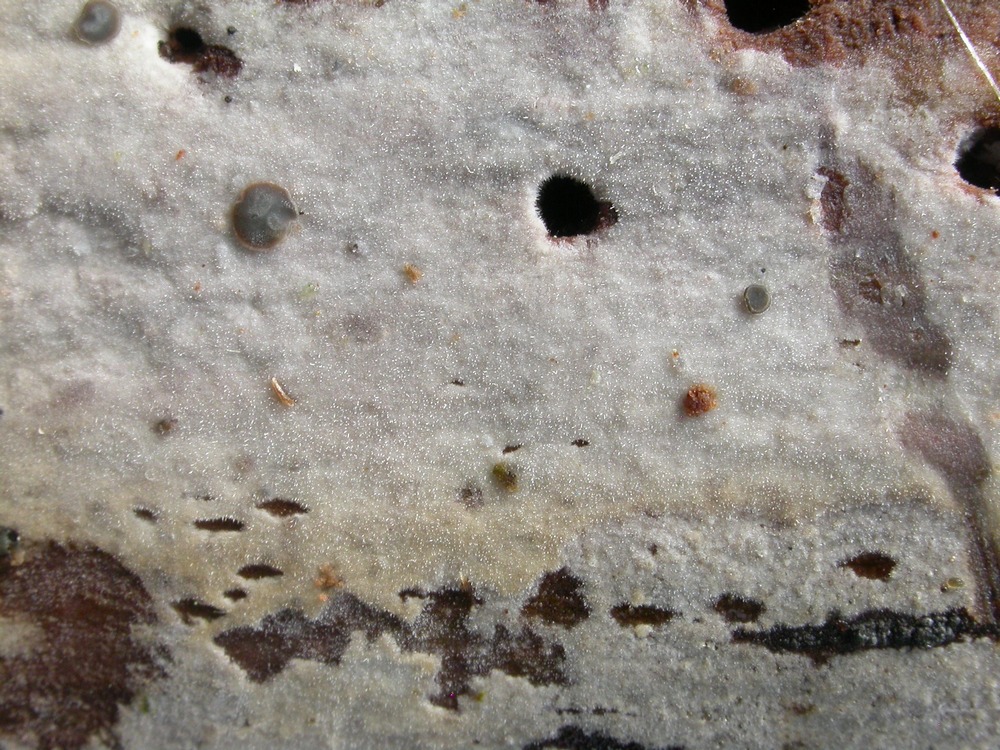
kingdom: Fungi
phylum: Basidiomycota
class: Agaricomycetes
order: Hymenochaetales
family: Rickenellaceae
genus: Peniophorella
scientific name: Peniophorella pubera
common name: dunet kalkskind
